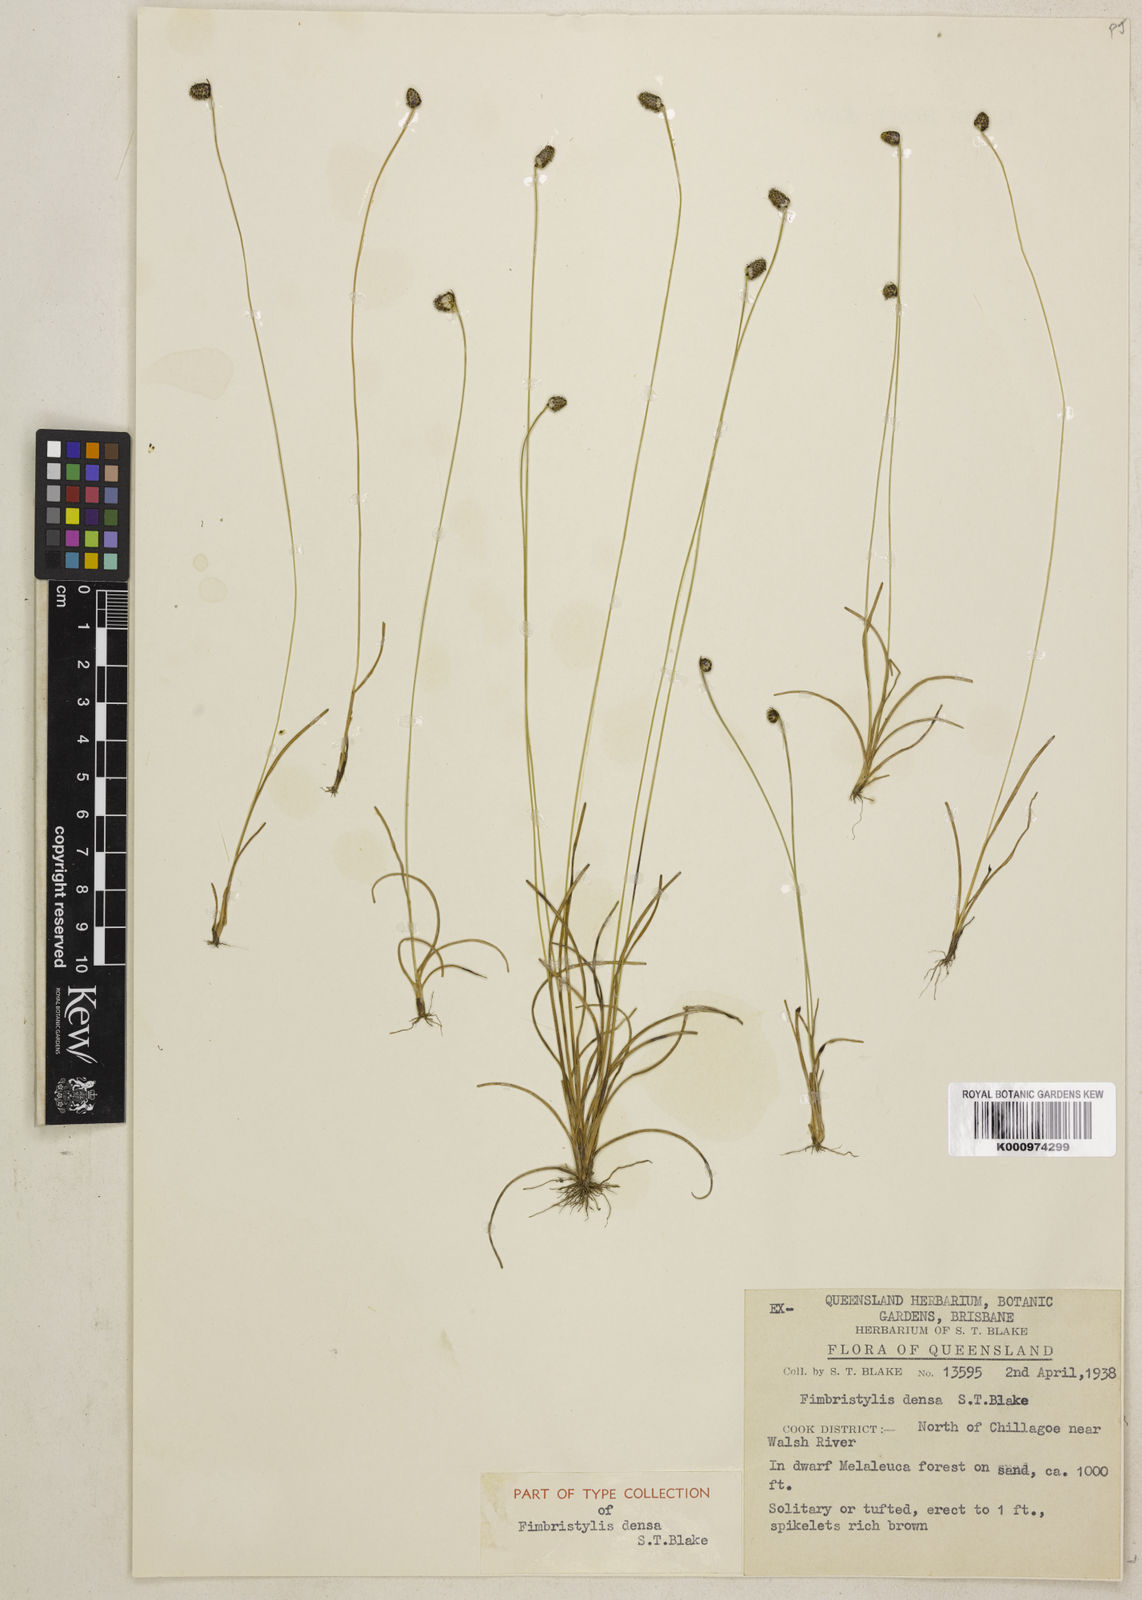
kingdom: Plantae
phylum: Tracheophyta
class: Liliopsida
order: Poales
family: Cyperaceae
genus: Fimbristylis
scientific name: Fimbristylis densa
